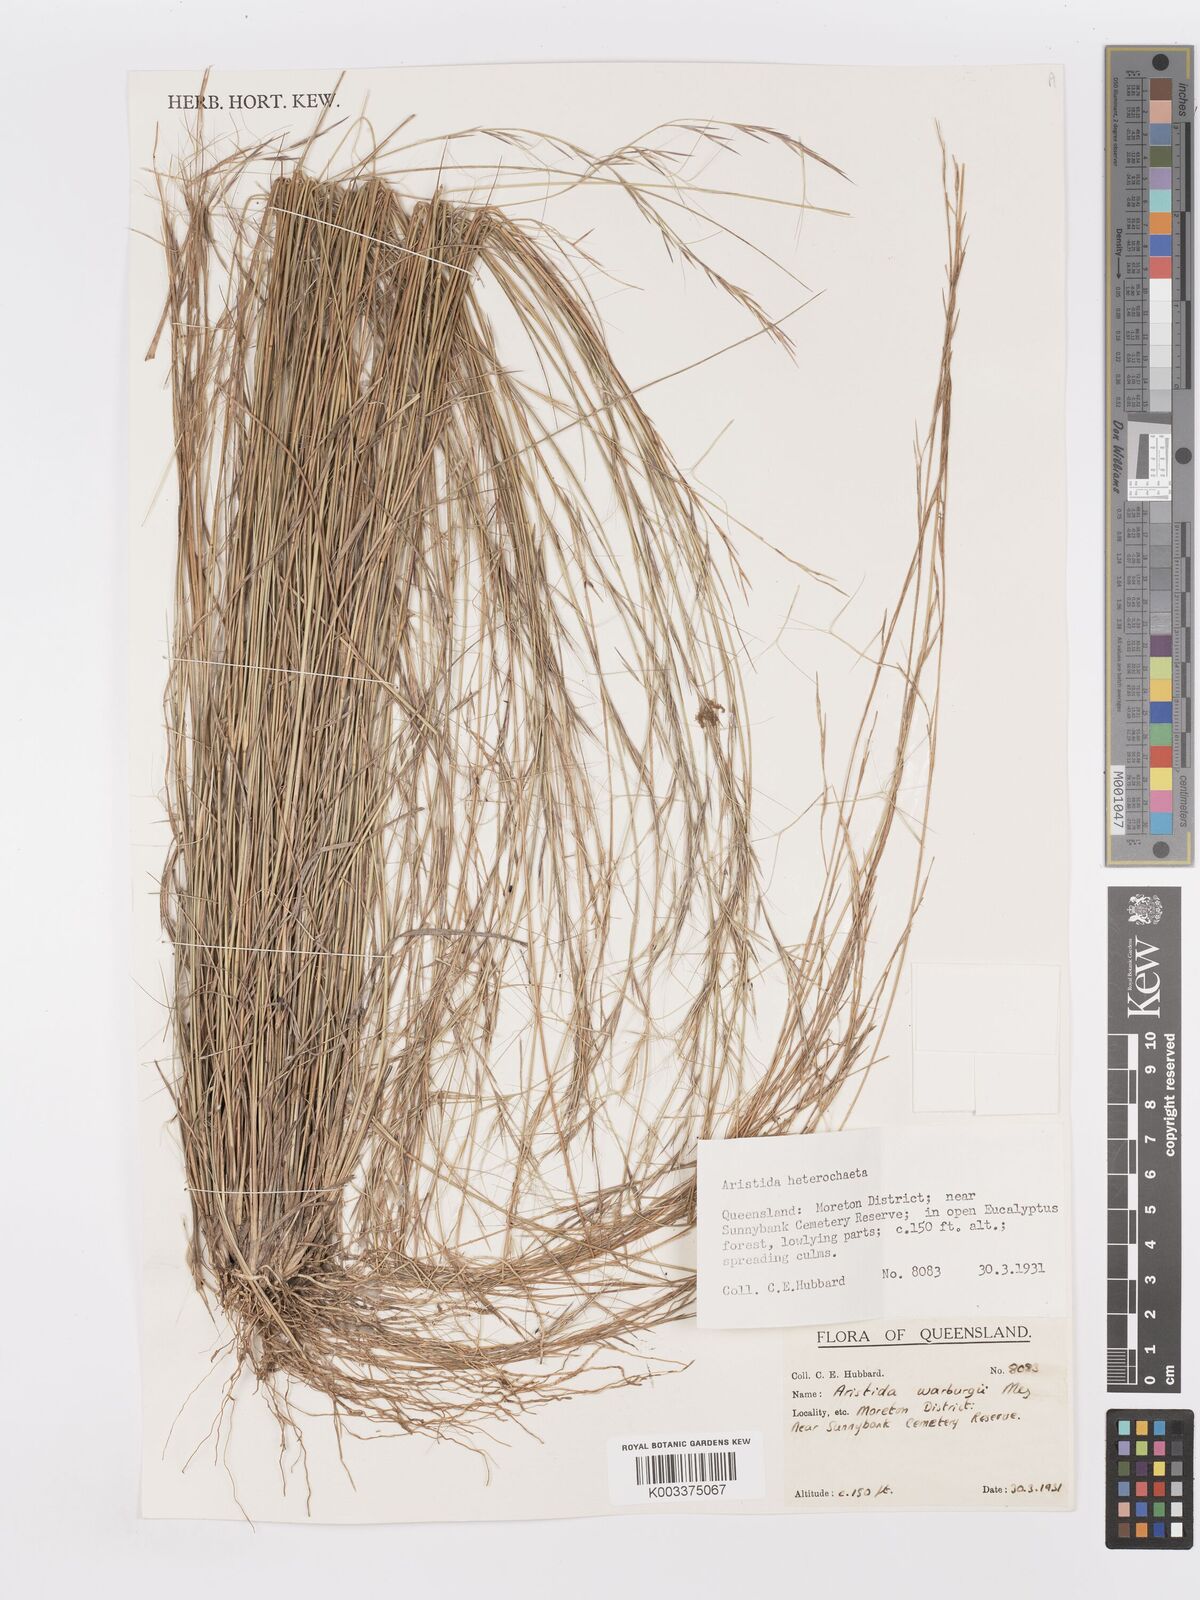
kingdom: Plantae
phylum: Tracheophyta
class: Liliopsida
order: Poales
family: Poaceae
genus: Aristida
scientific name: Aristida warburgii
